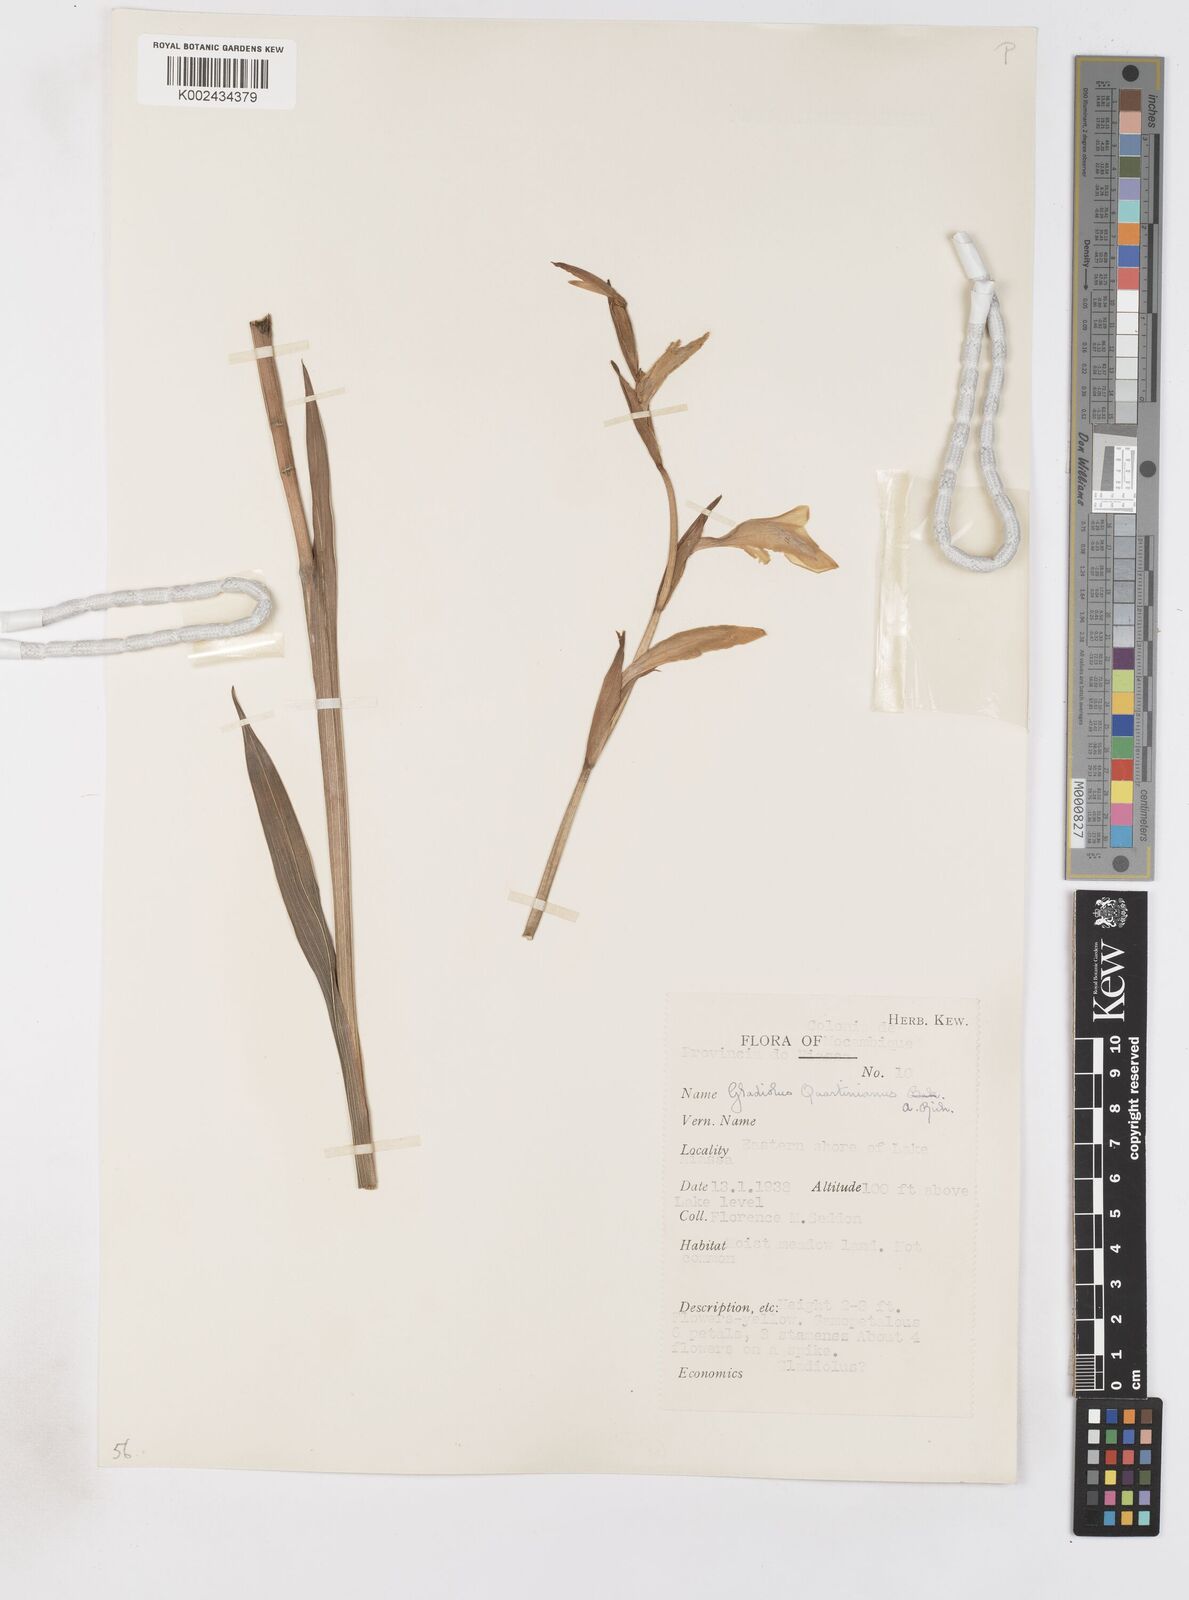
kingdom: Plantae
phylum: Tracheophyta
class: Liliopsida
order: Asparagales
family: Iridaceae
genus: Gladiolus
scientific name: Gladiolus dalenii
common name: Cornflag
